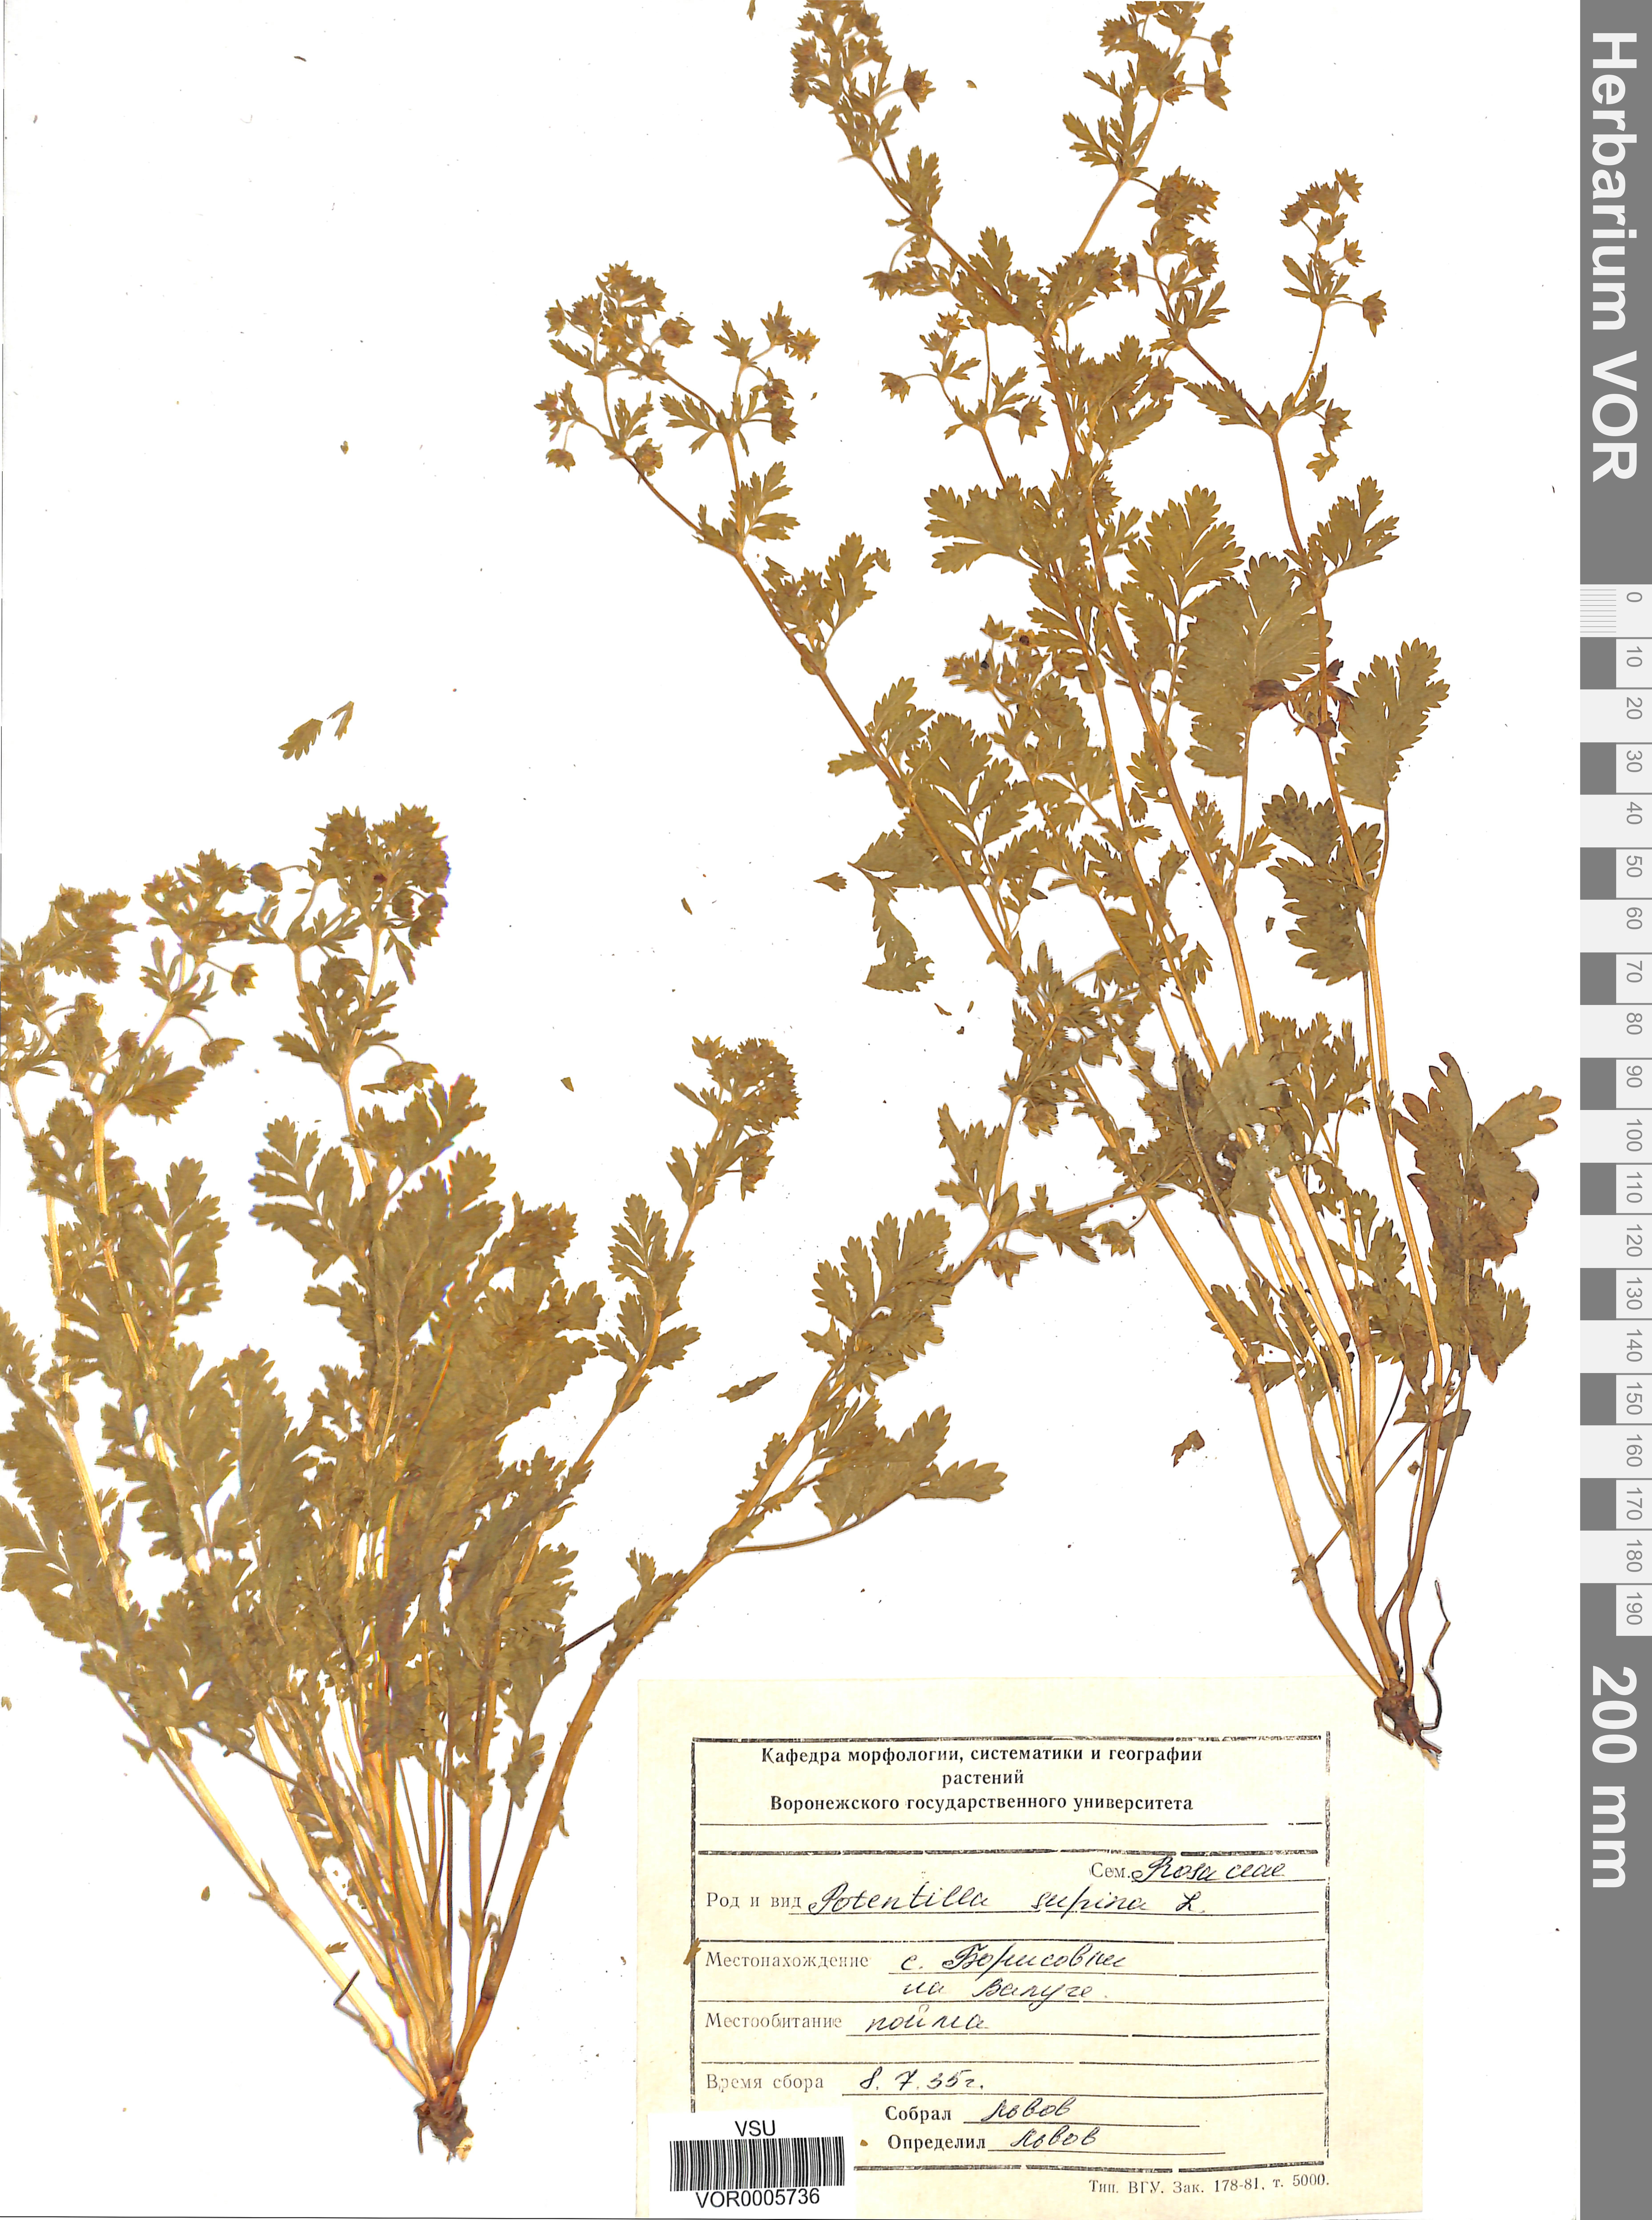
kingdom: Plantae
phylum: Tracheophyta
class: Magnoliopsida
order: Rosales
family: Rosaceae
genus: Potentilla
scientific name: Potentilla supina
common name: Prostrate cinquefoil
